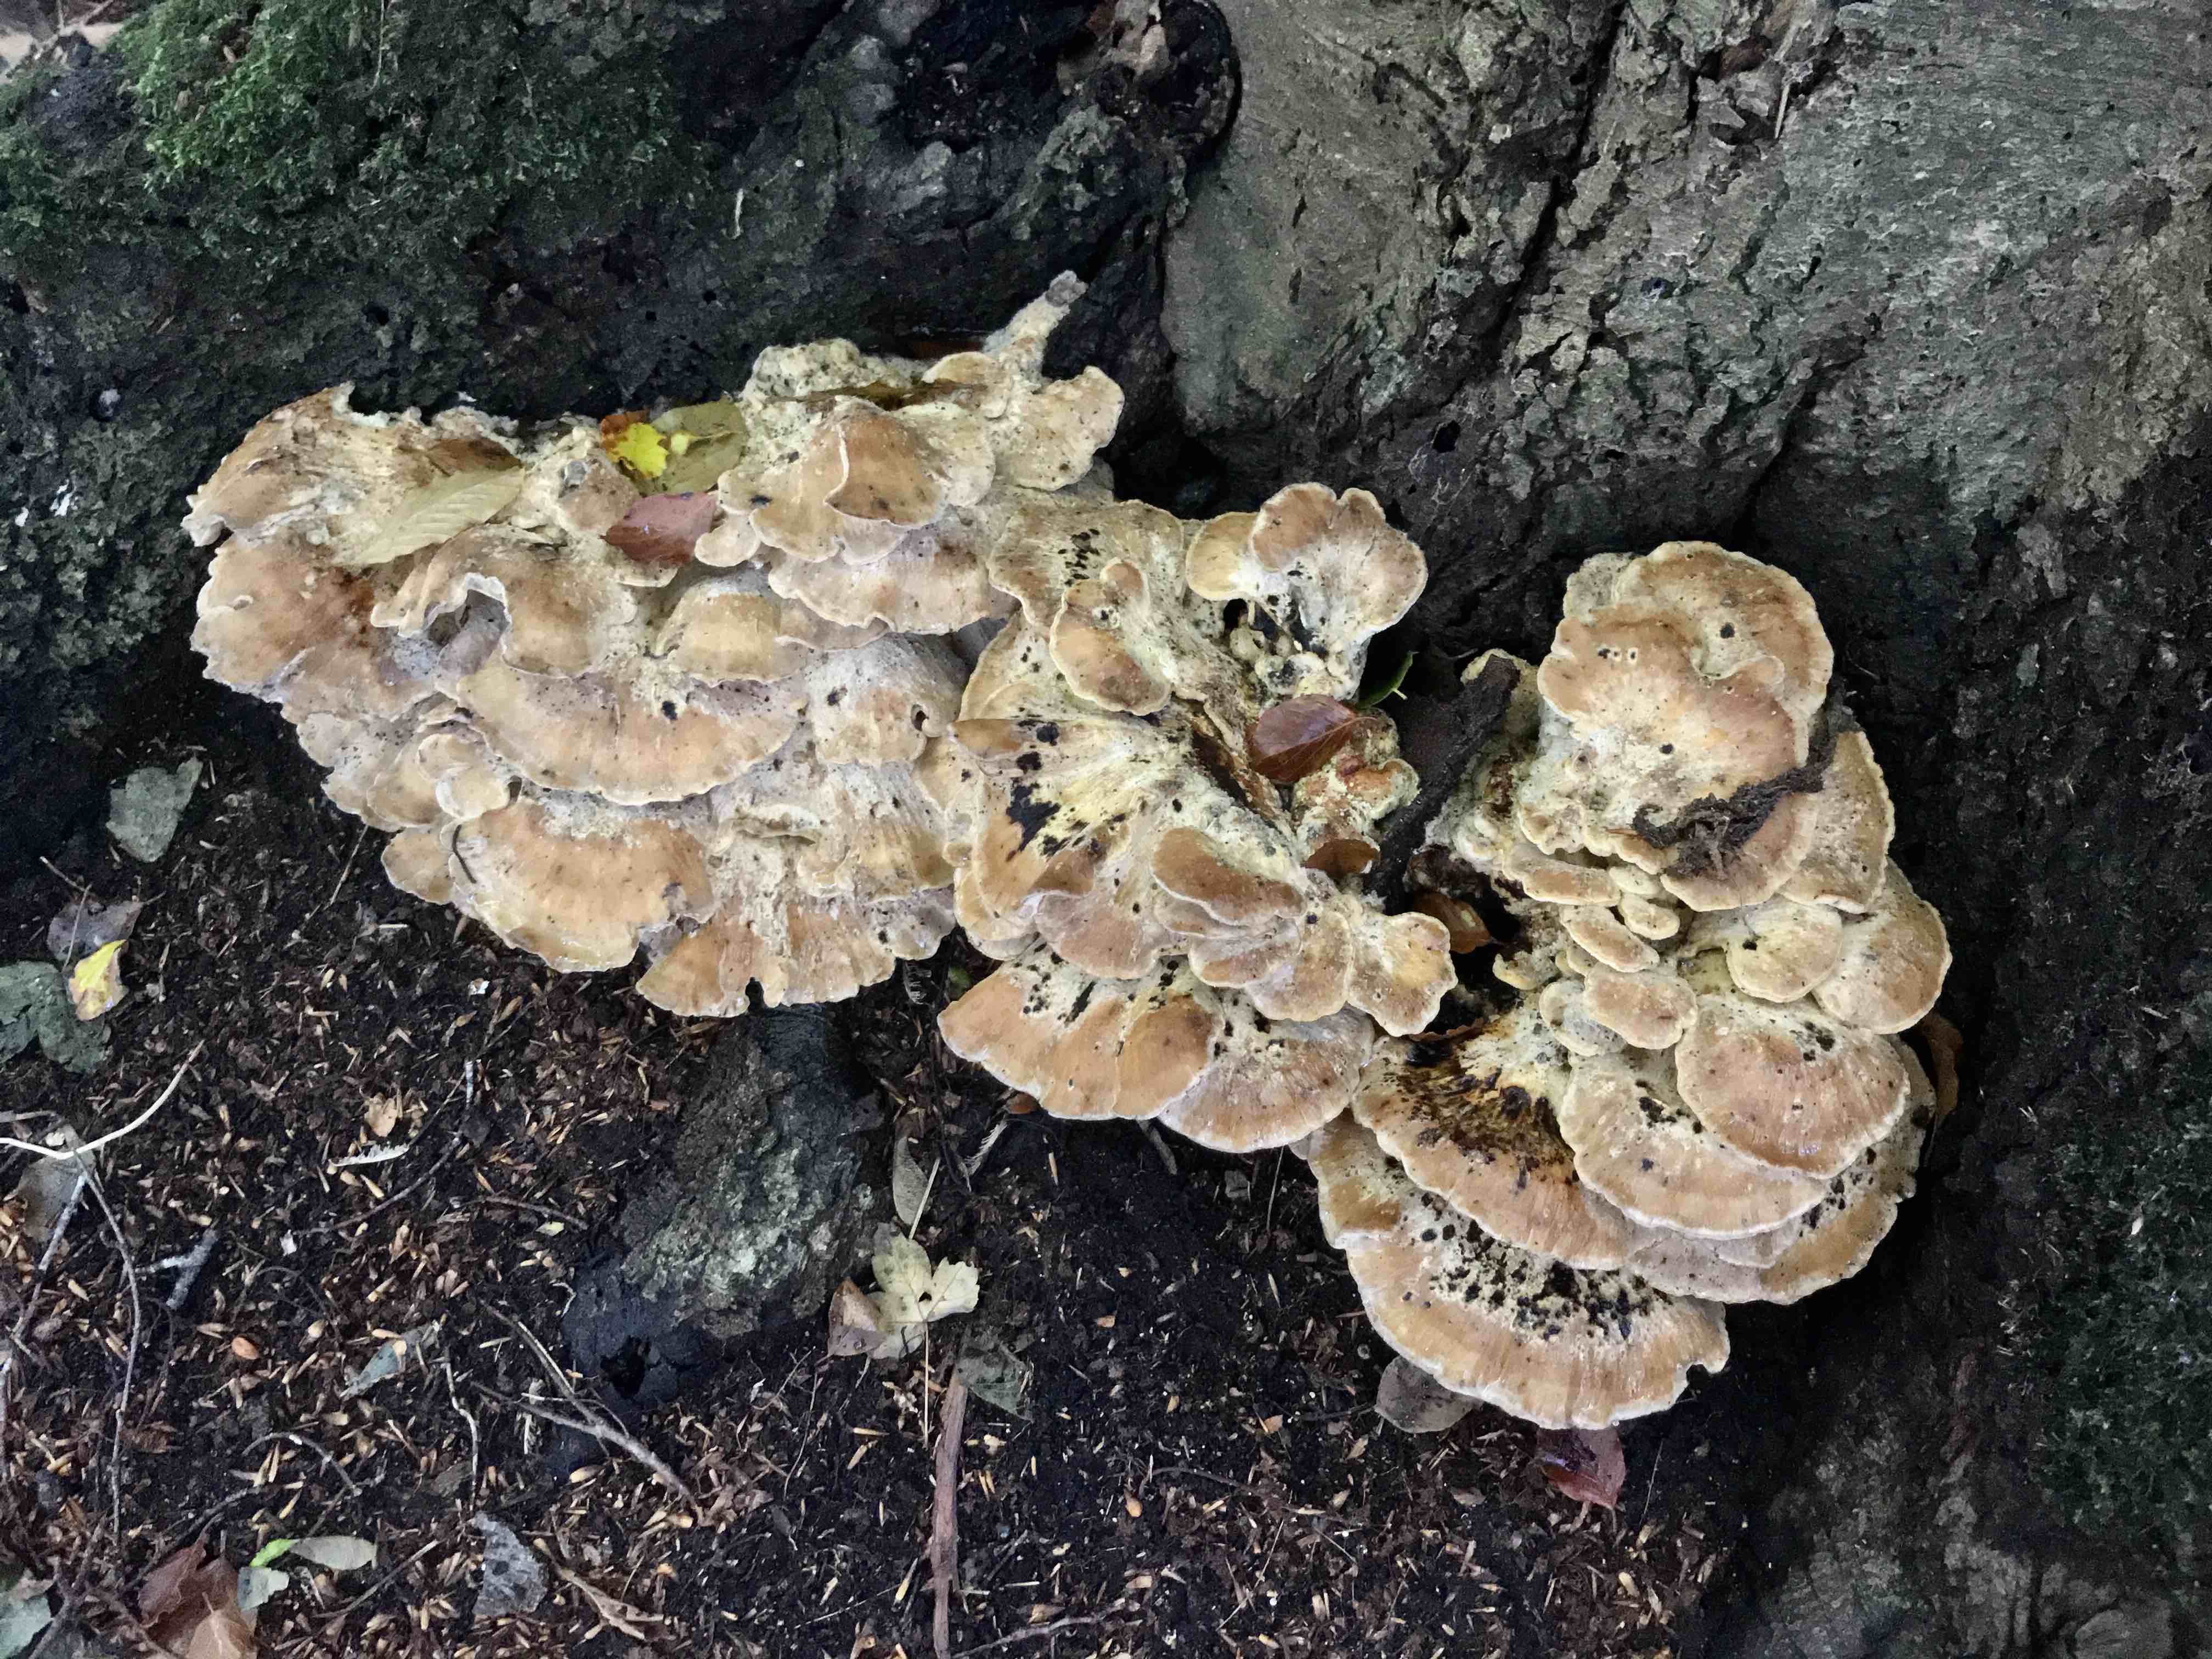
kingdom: Fungi
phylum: Basidiomycota
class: Agaricomycetes
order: Polyporales
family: Meripilaceae
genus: Meripilus
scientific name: Meripilus giganteus
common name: kæmpeporesvamp
